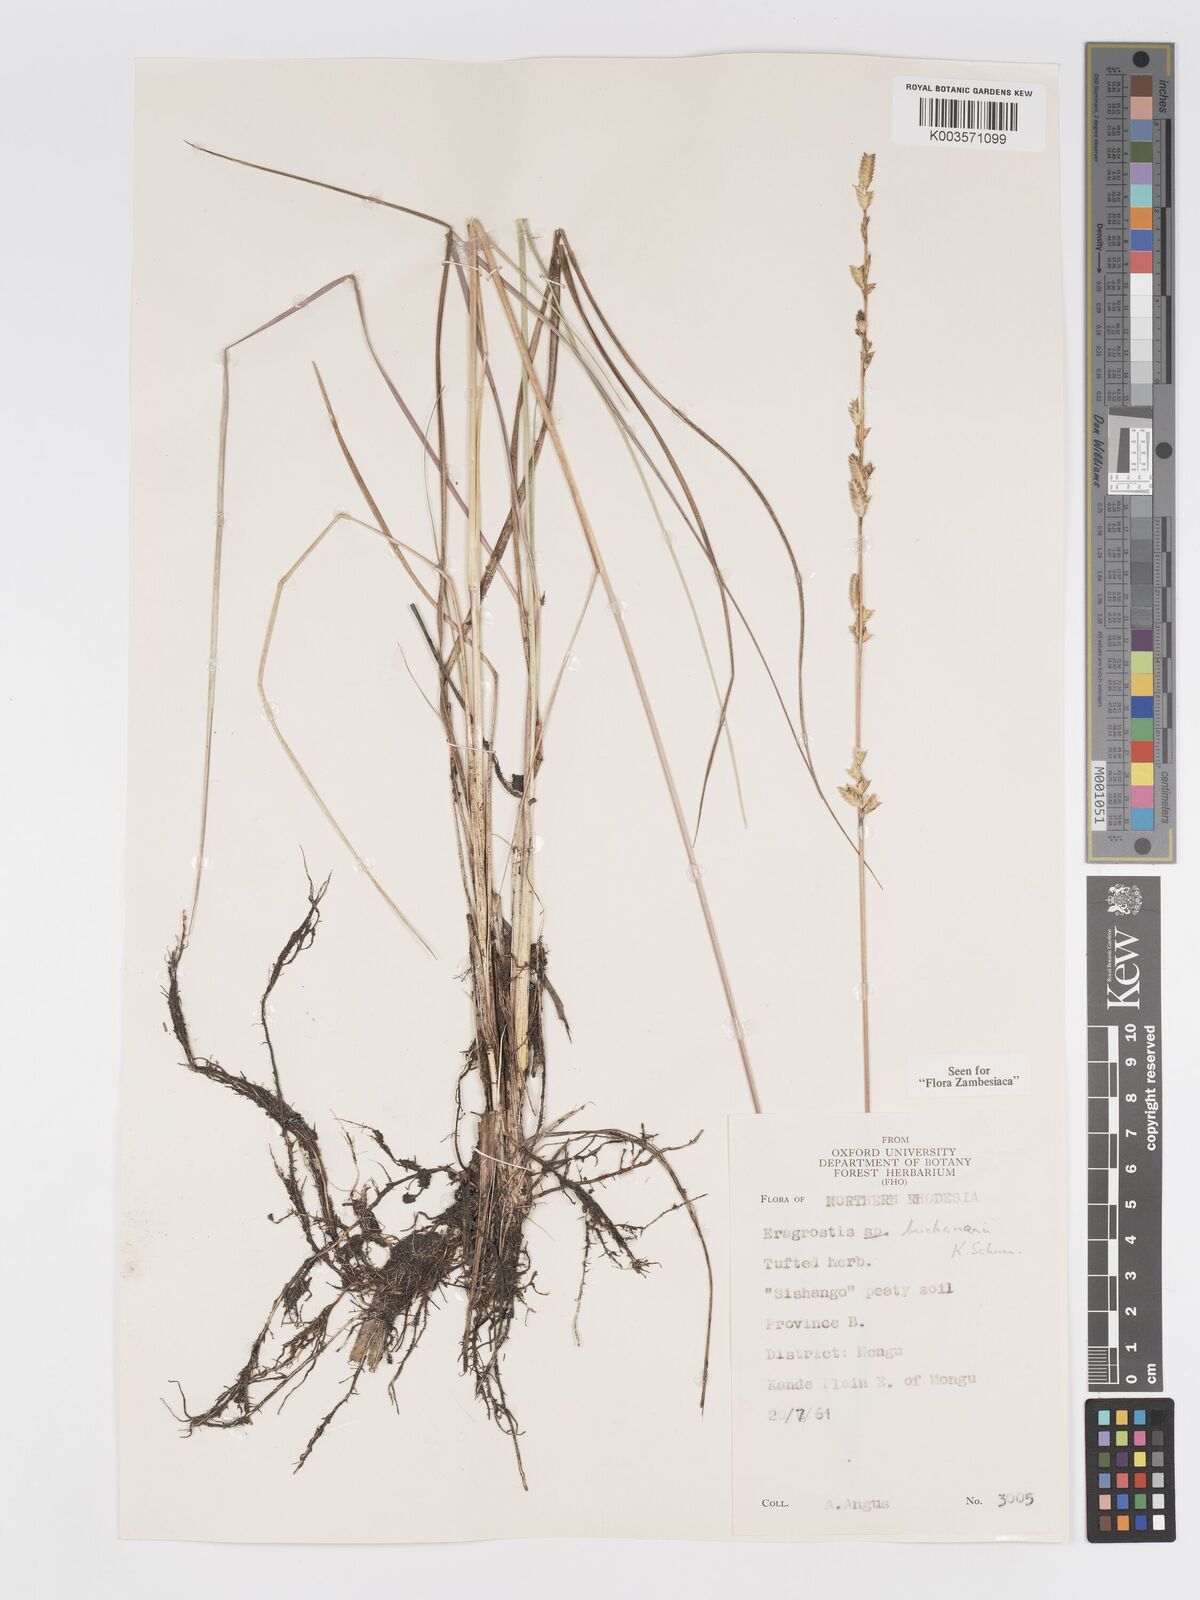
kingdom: Plantae
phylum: Tracheophyta
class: Liliopsida
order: Poales
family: Poaceae
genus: Eragrostis
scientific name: Eragrostis nindensis
